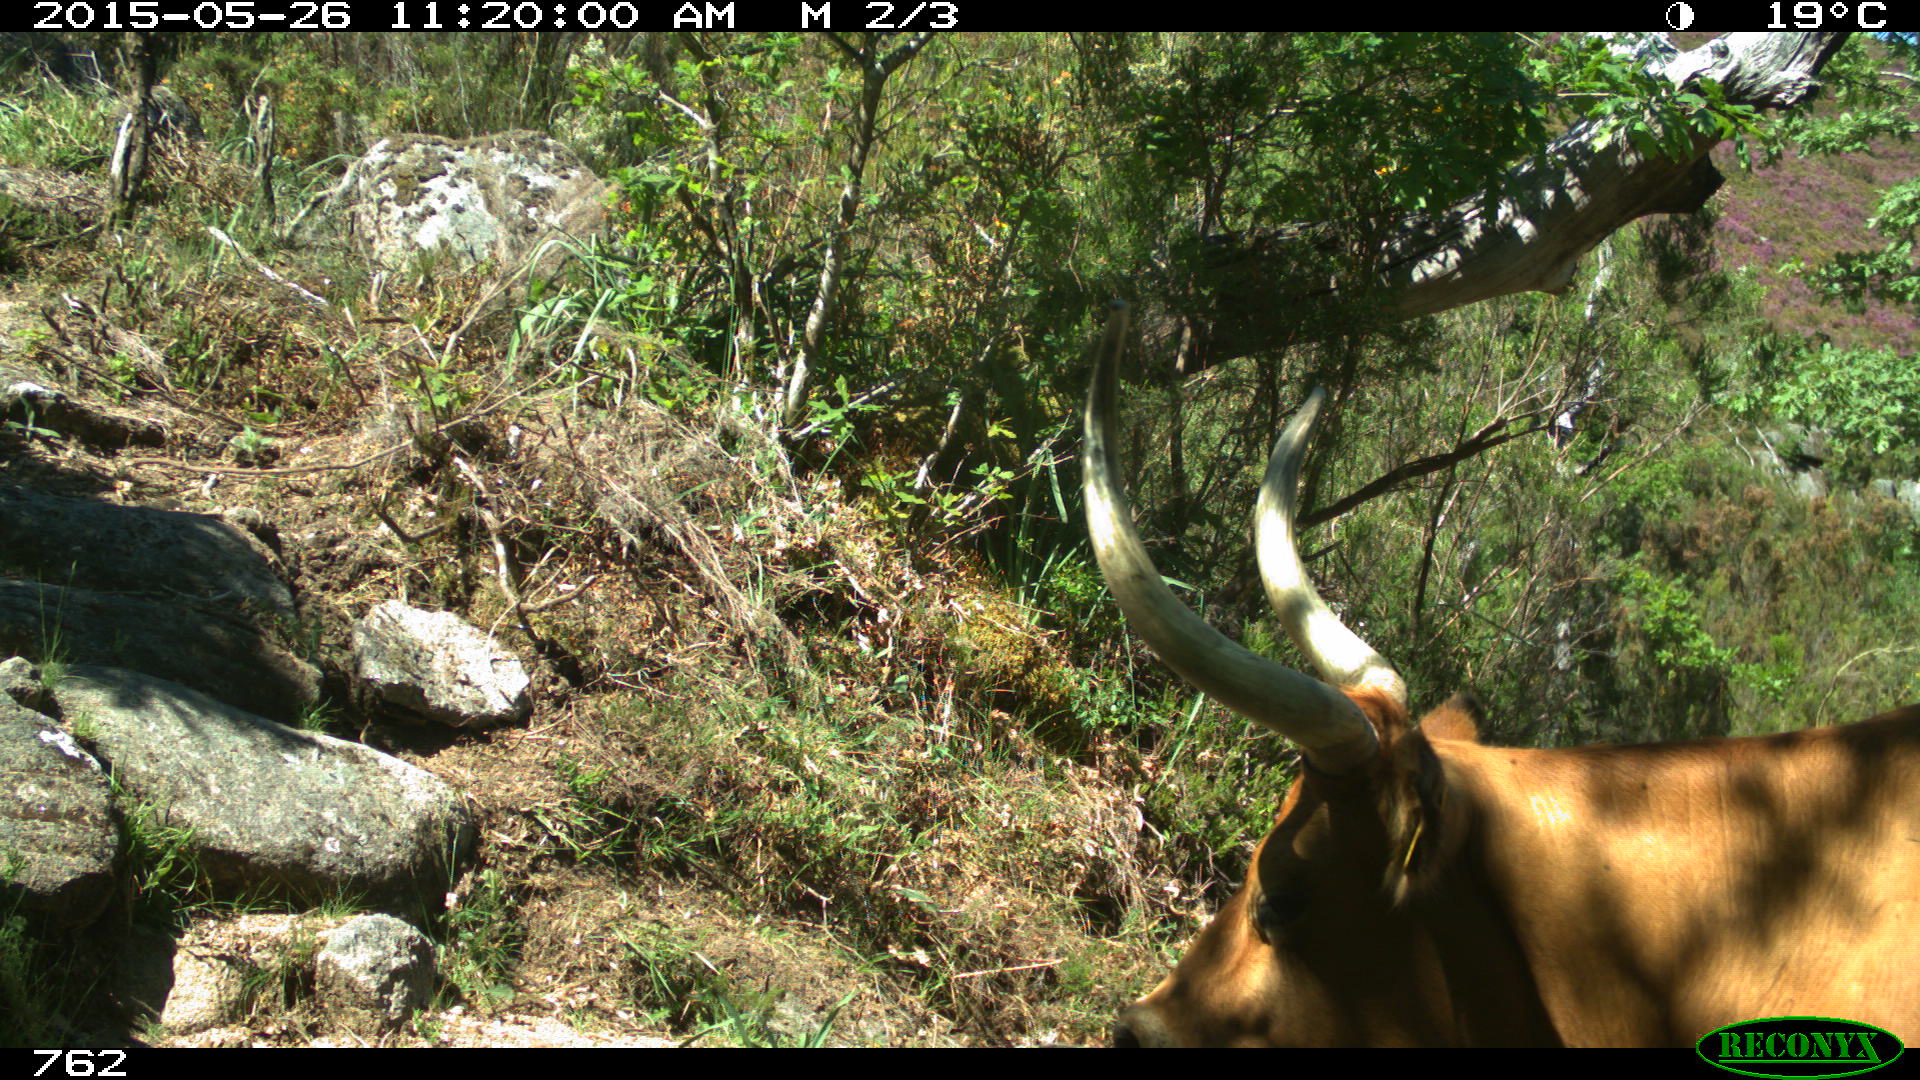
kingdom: Animalia
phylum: Chordata
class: Mammalia
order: Artiodactyla
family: Bovidae
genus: Bos
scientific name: Bos taurus
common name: Domesticated cattle
